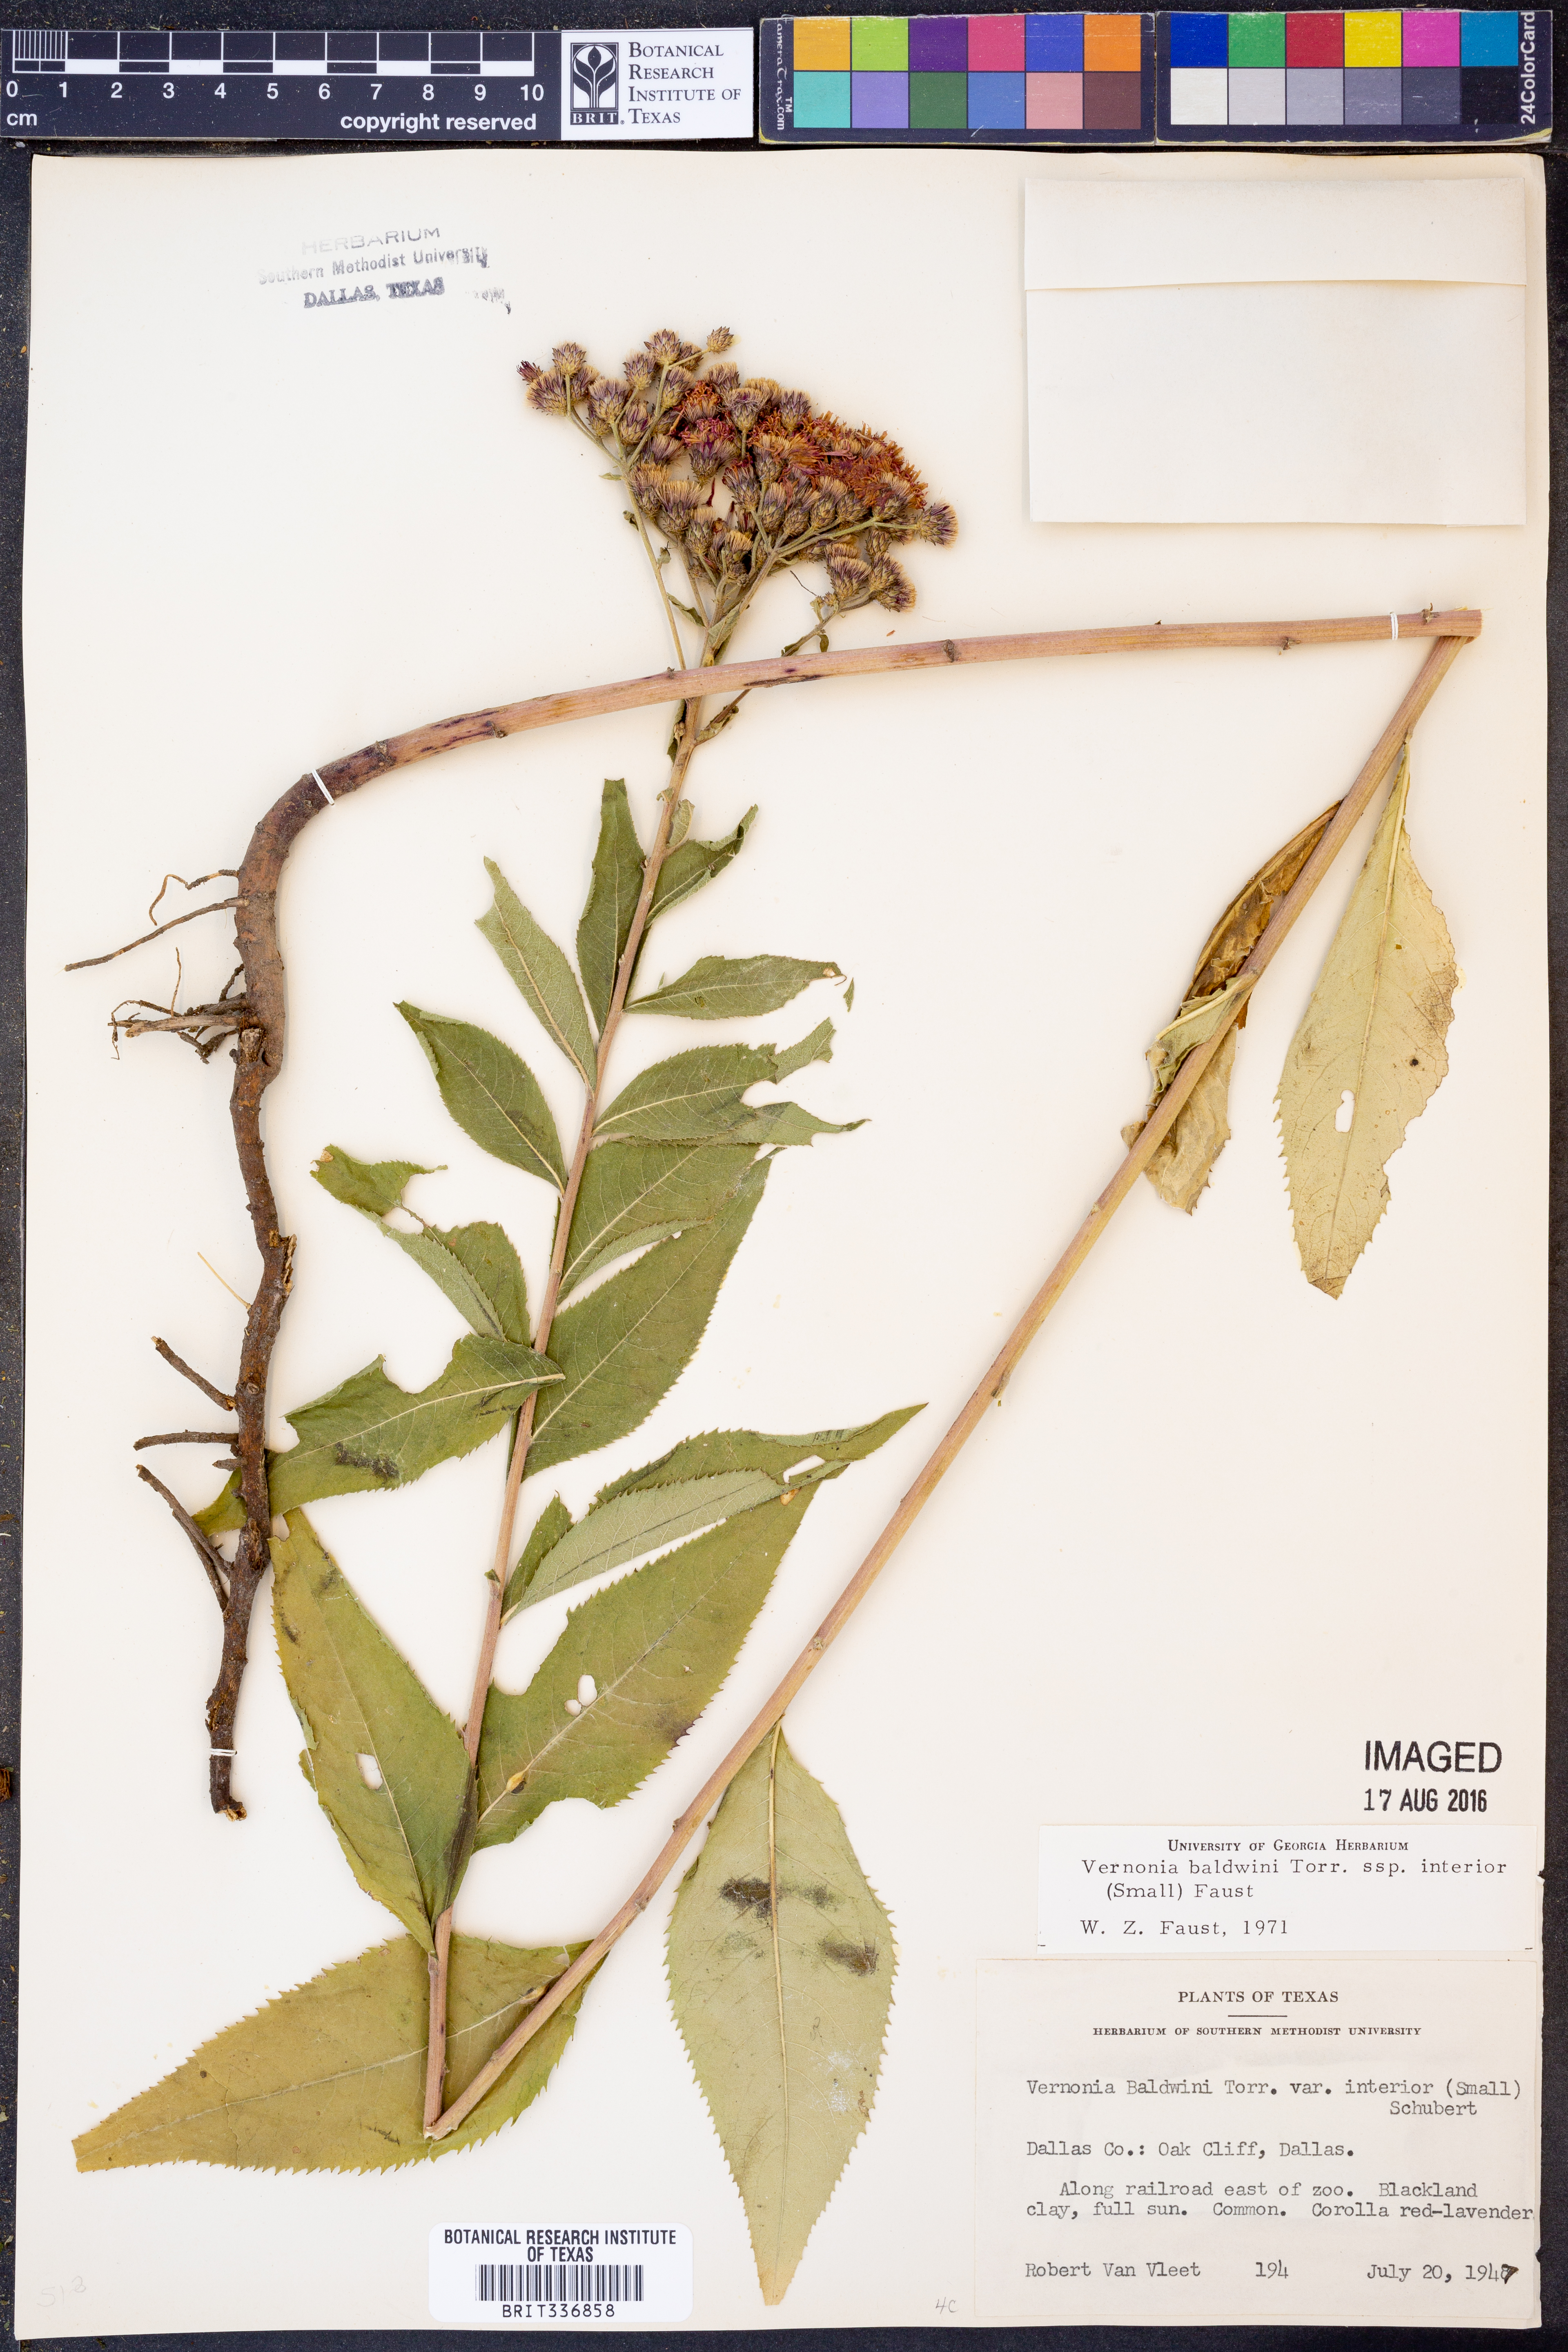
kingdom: Plantae
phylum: Tracheophyta
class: Magnoliopsida
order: Asterales
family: Asteraceae
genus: Vernonia
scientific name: Vernonia baldwinii
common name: Western ironweed
